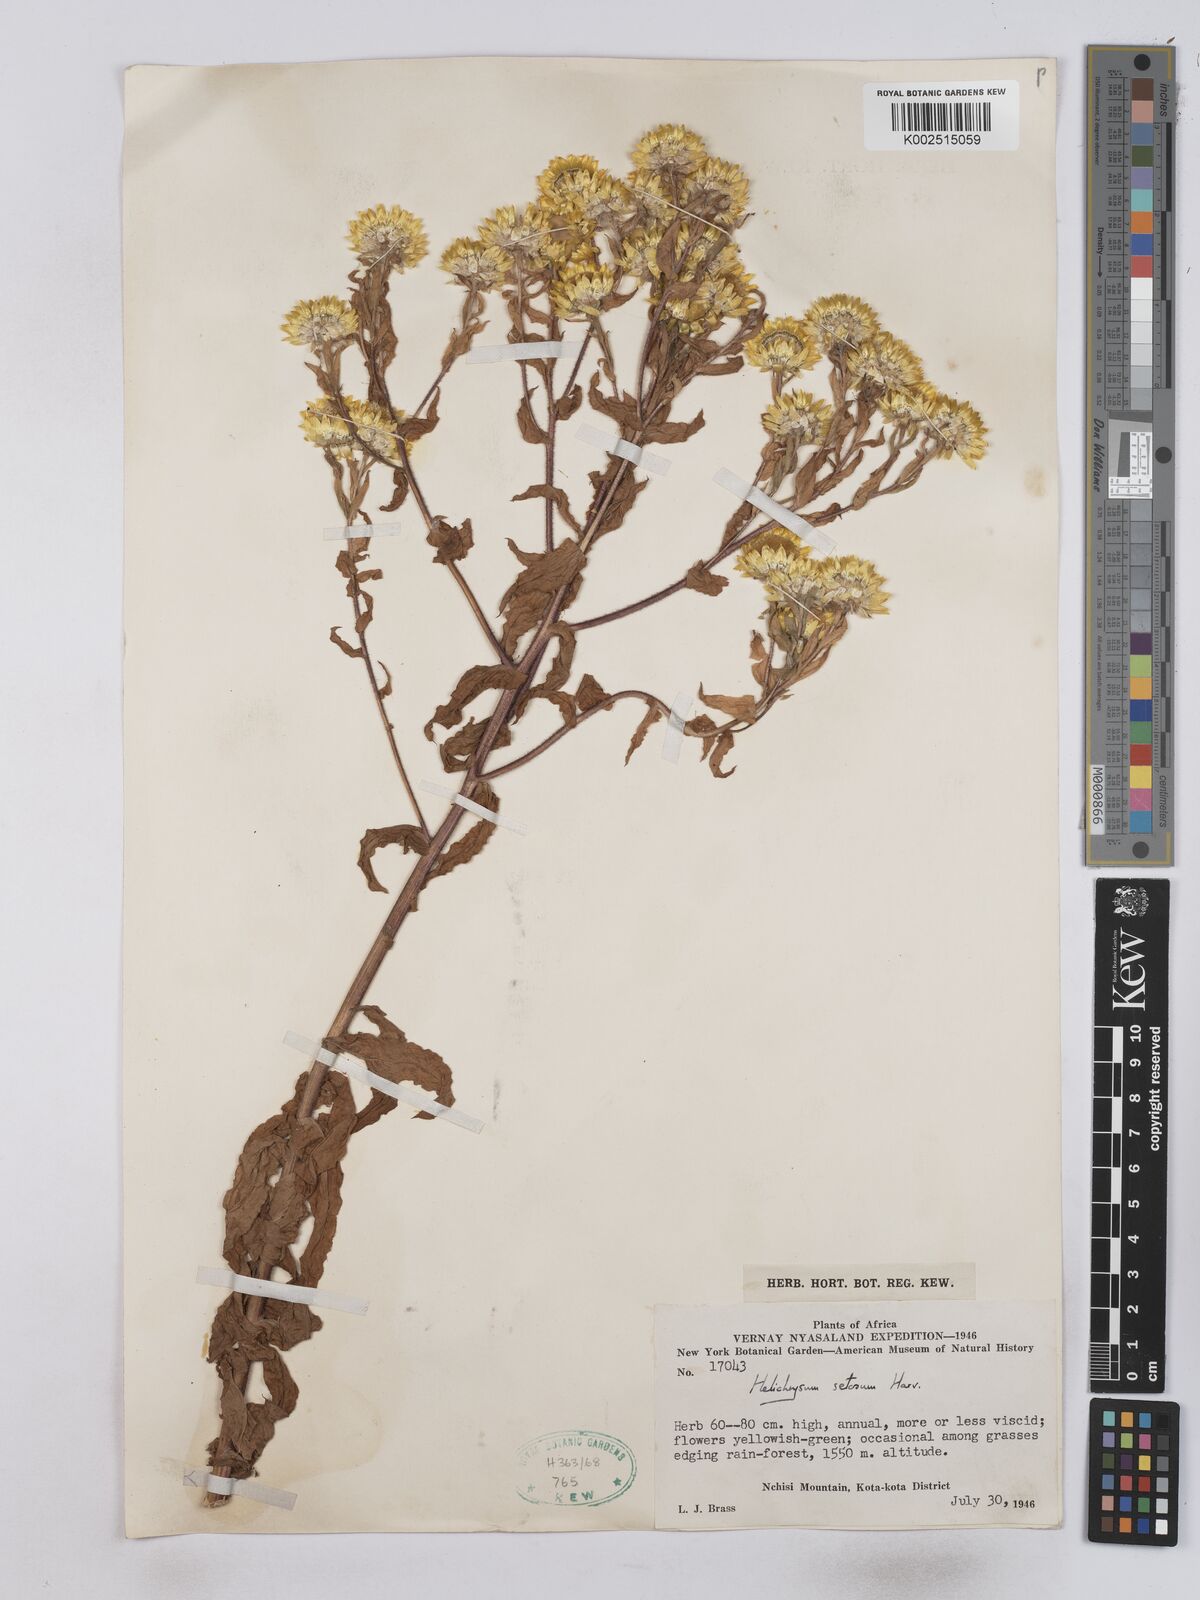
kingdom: Plantae
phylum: Tracheophyta
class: Magnoliopsida
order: Asterales
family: Asteraceae
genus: Helichrysum
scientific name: Helichrysum setosum
